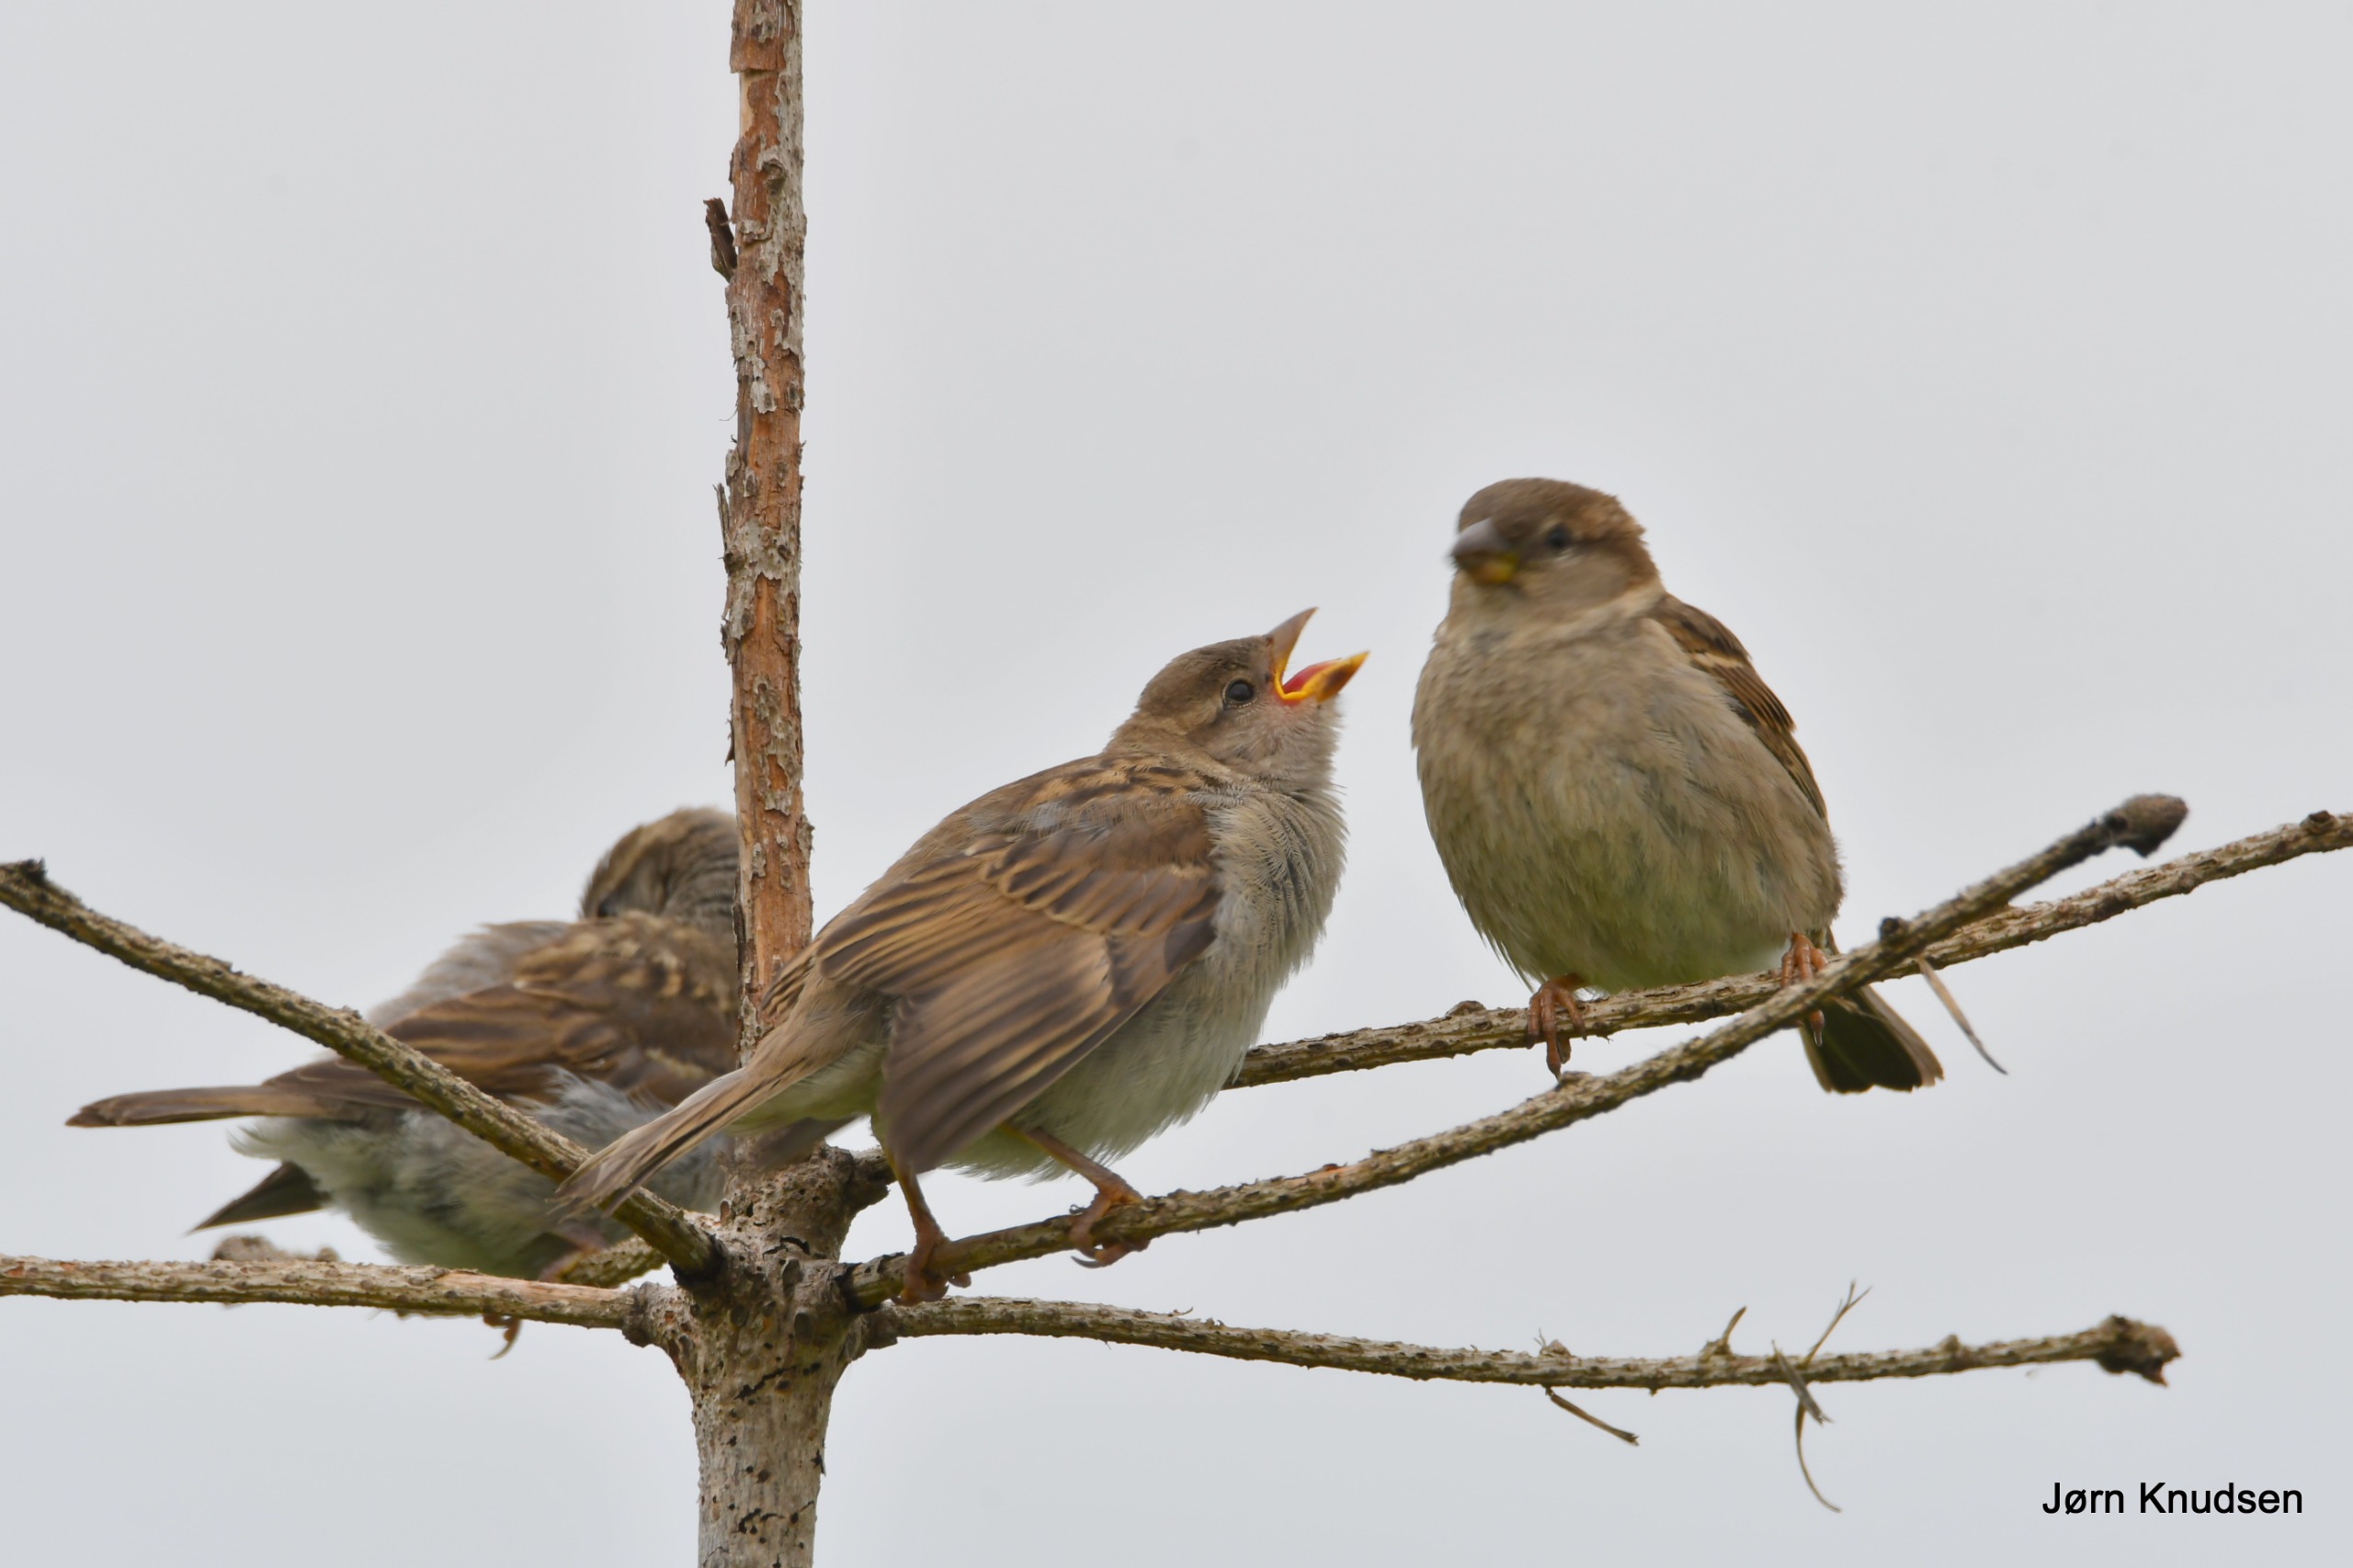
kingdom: Animalia
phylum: Chordata
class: Aves
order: Passeriformes
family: Passeridae
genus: Passer
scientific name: Passer domesticus
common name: Gråspurv
